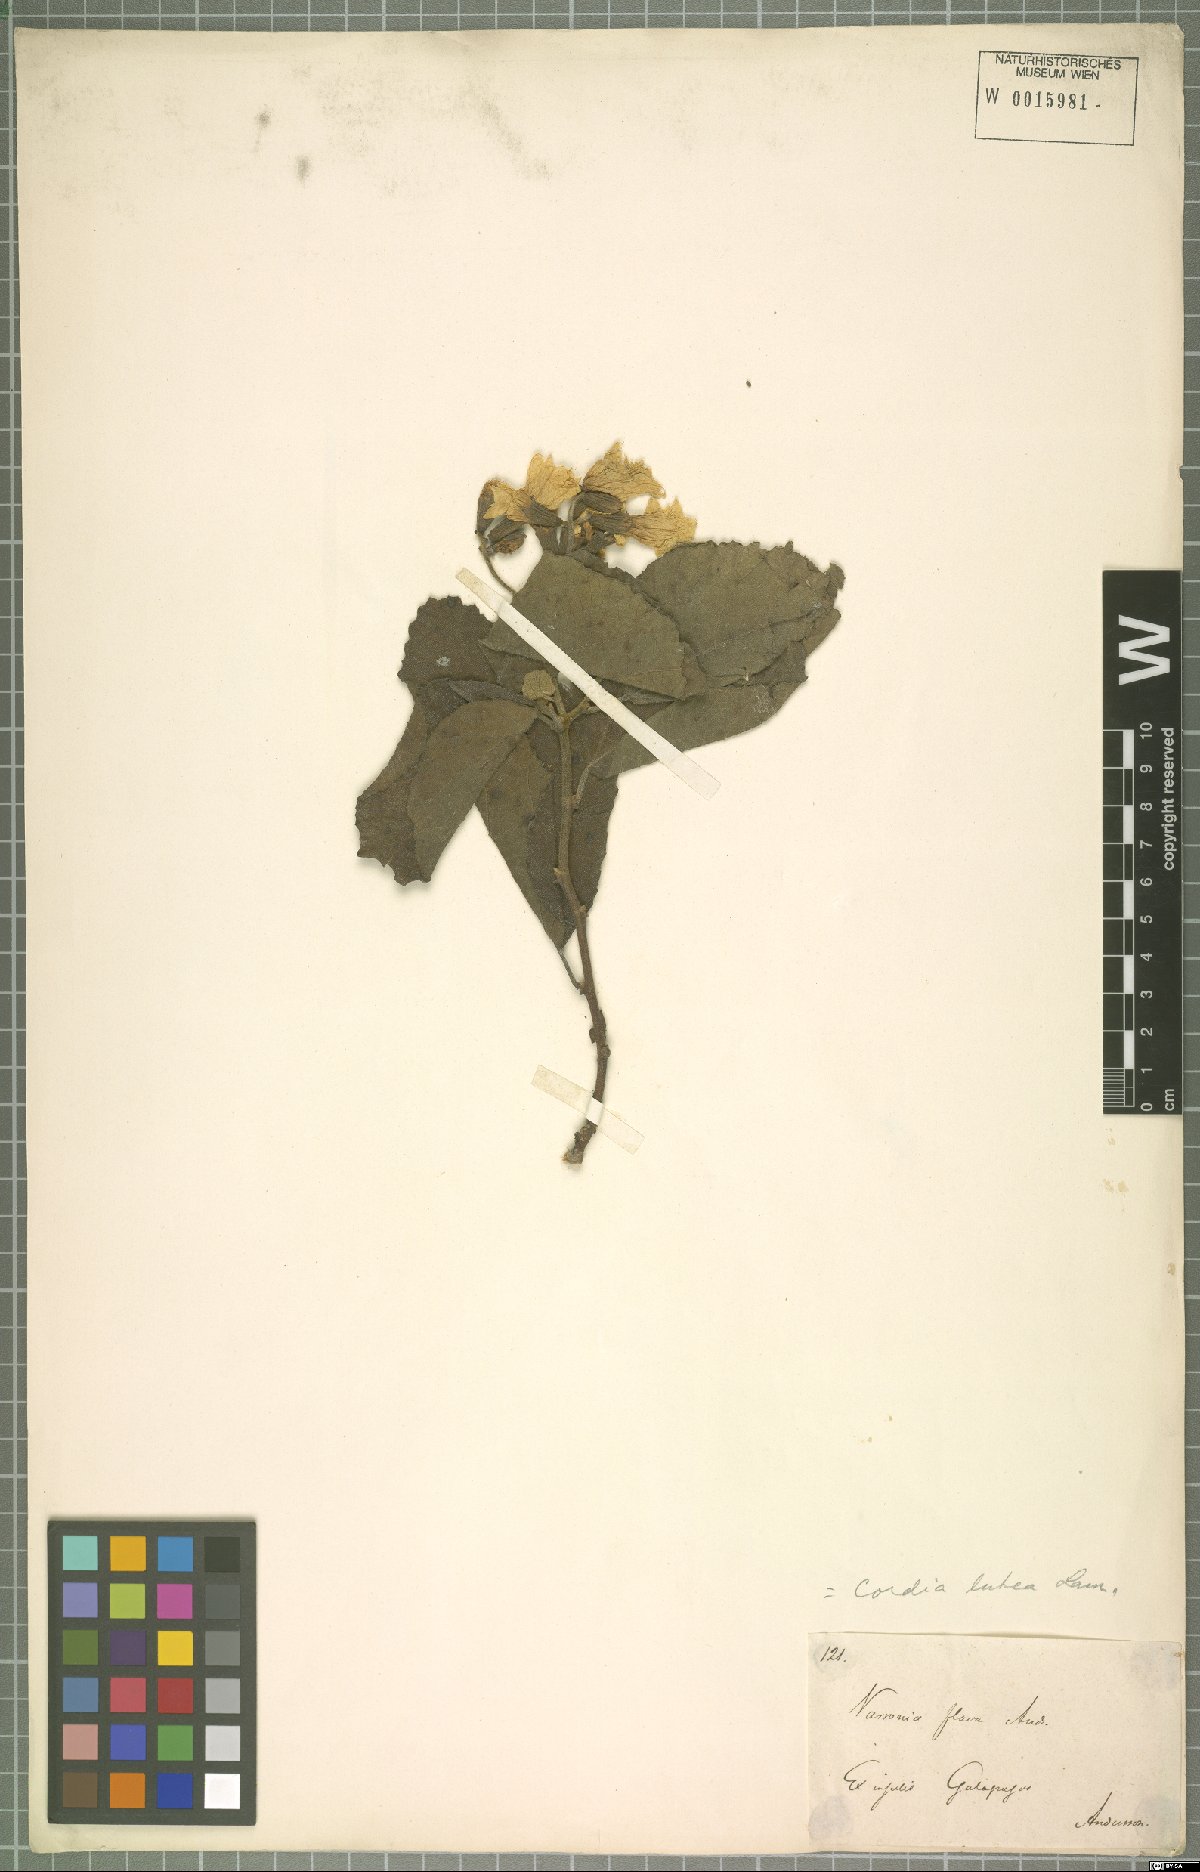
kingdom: Plantae
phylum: Tracheophyta
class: Magnoliopsida
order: Boraginales
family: Cordiaceae
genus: Cordia
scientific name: Cordia lutea
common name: Yellow geiger
